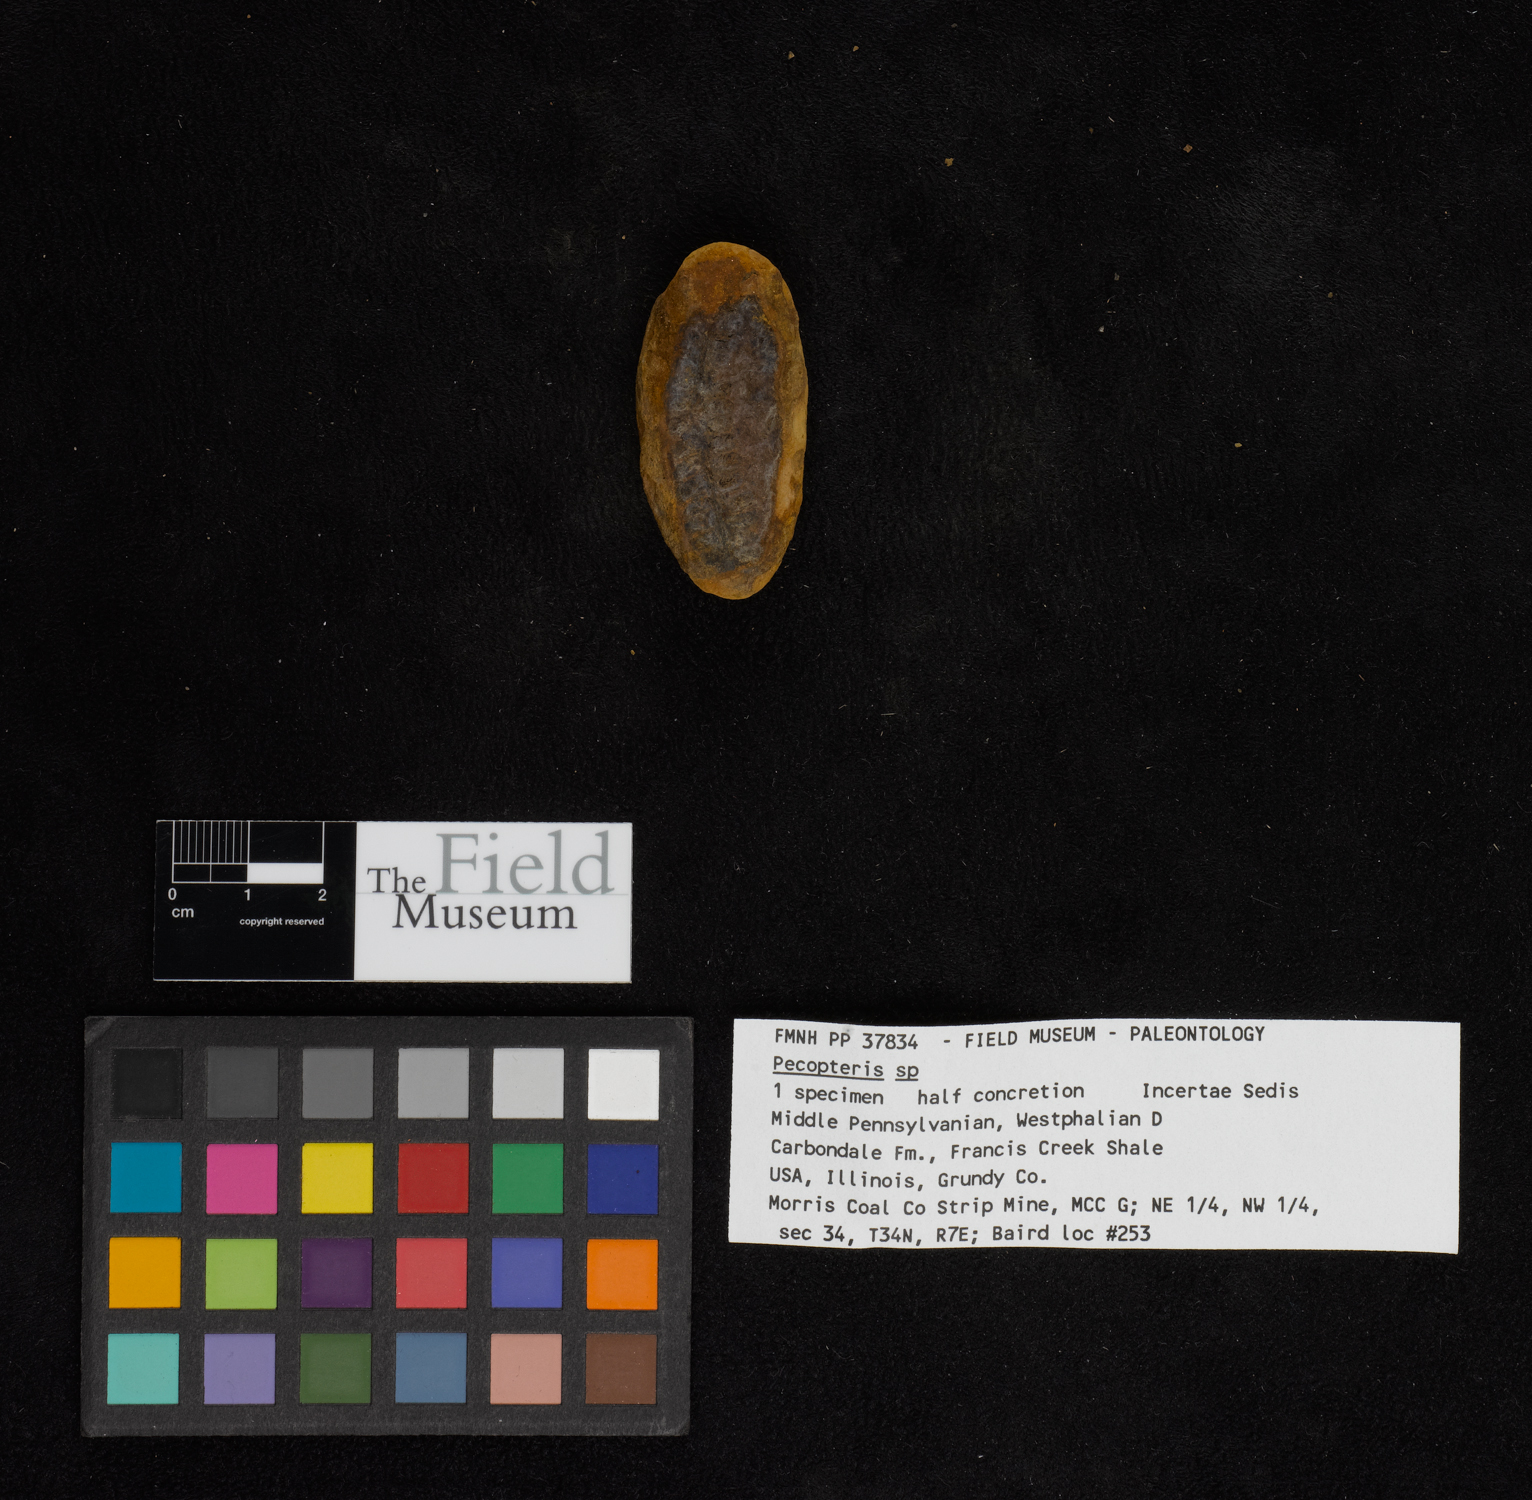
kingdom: Plantae
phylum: Tracheophyta
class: Polypodiopsida
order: Marattiales
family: Asterothecaceae
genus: Pecopteris
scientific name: Pecopteris
